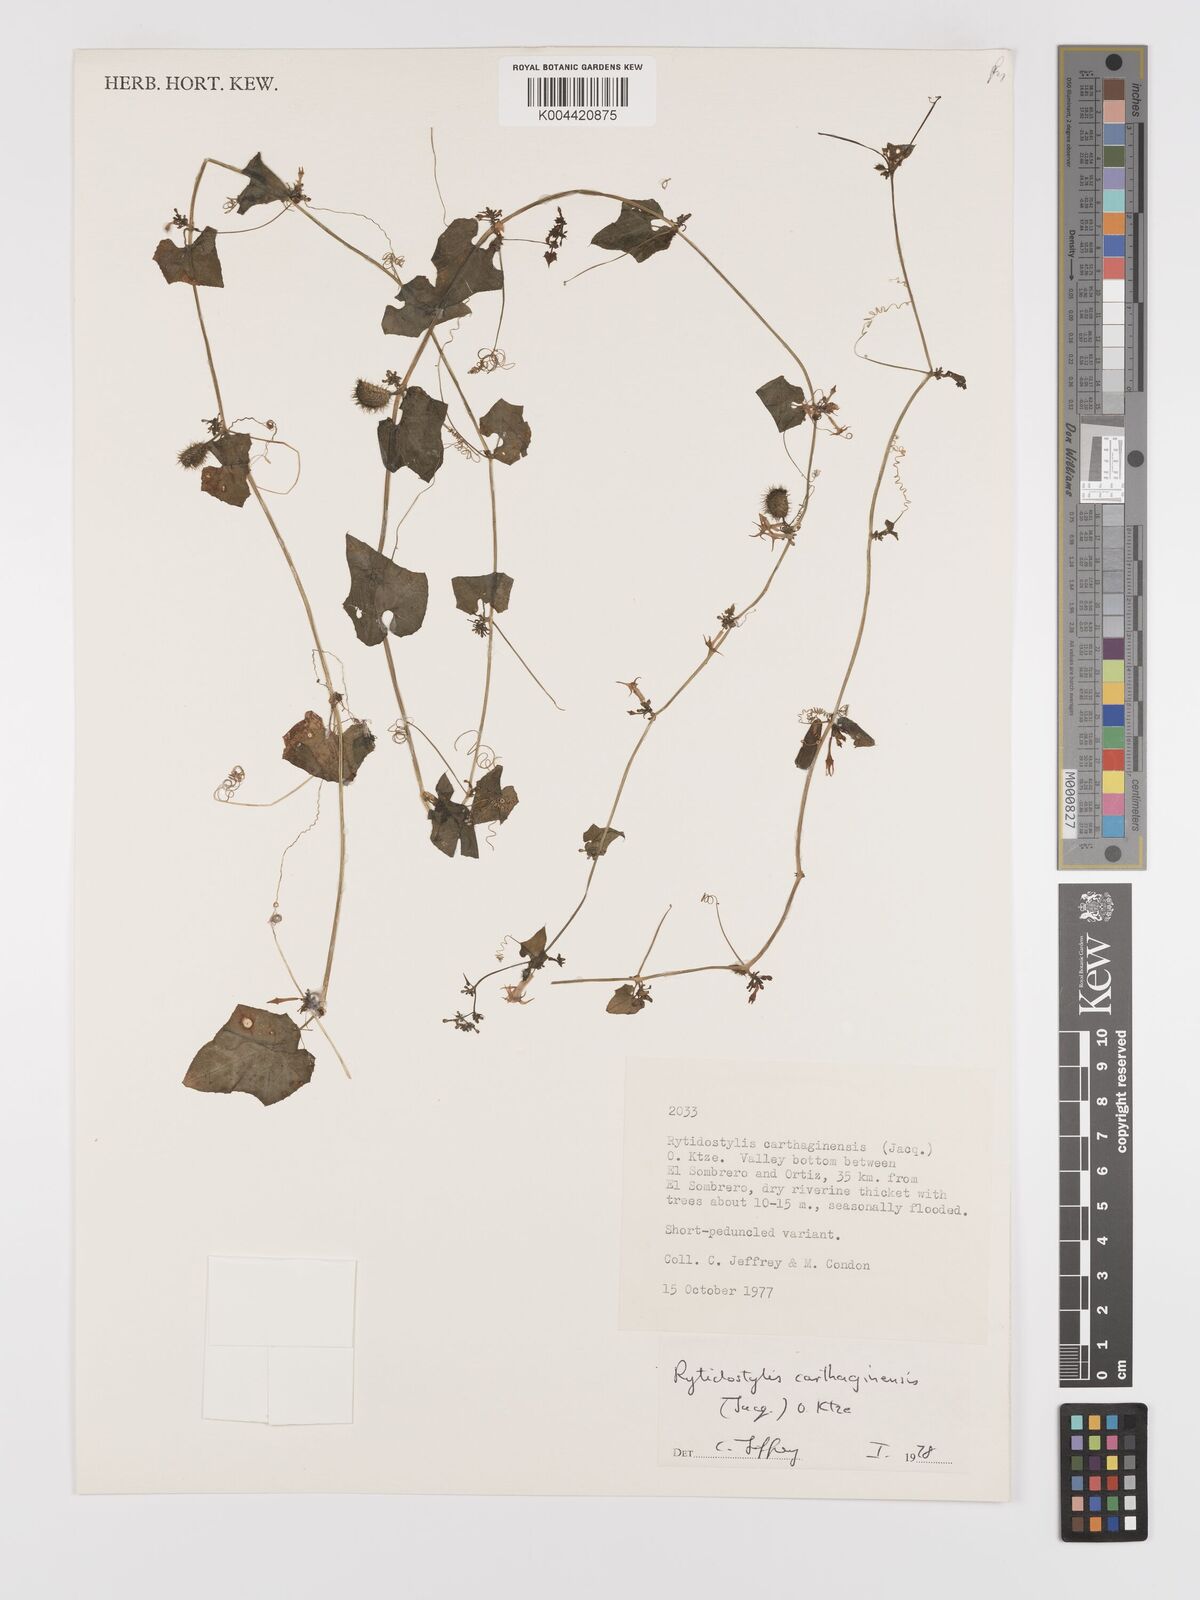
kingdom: Plantae
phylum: Tracheophyta
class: Magnoliopsida
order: Cucurbitales
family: Cucurbitaceae
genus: Cyclanthera
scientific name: Cyclanthera carthagenensis
